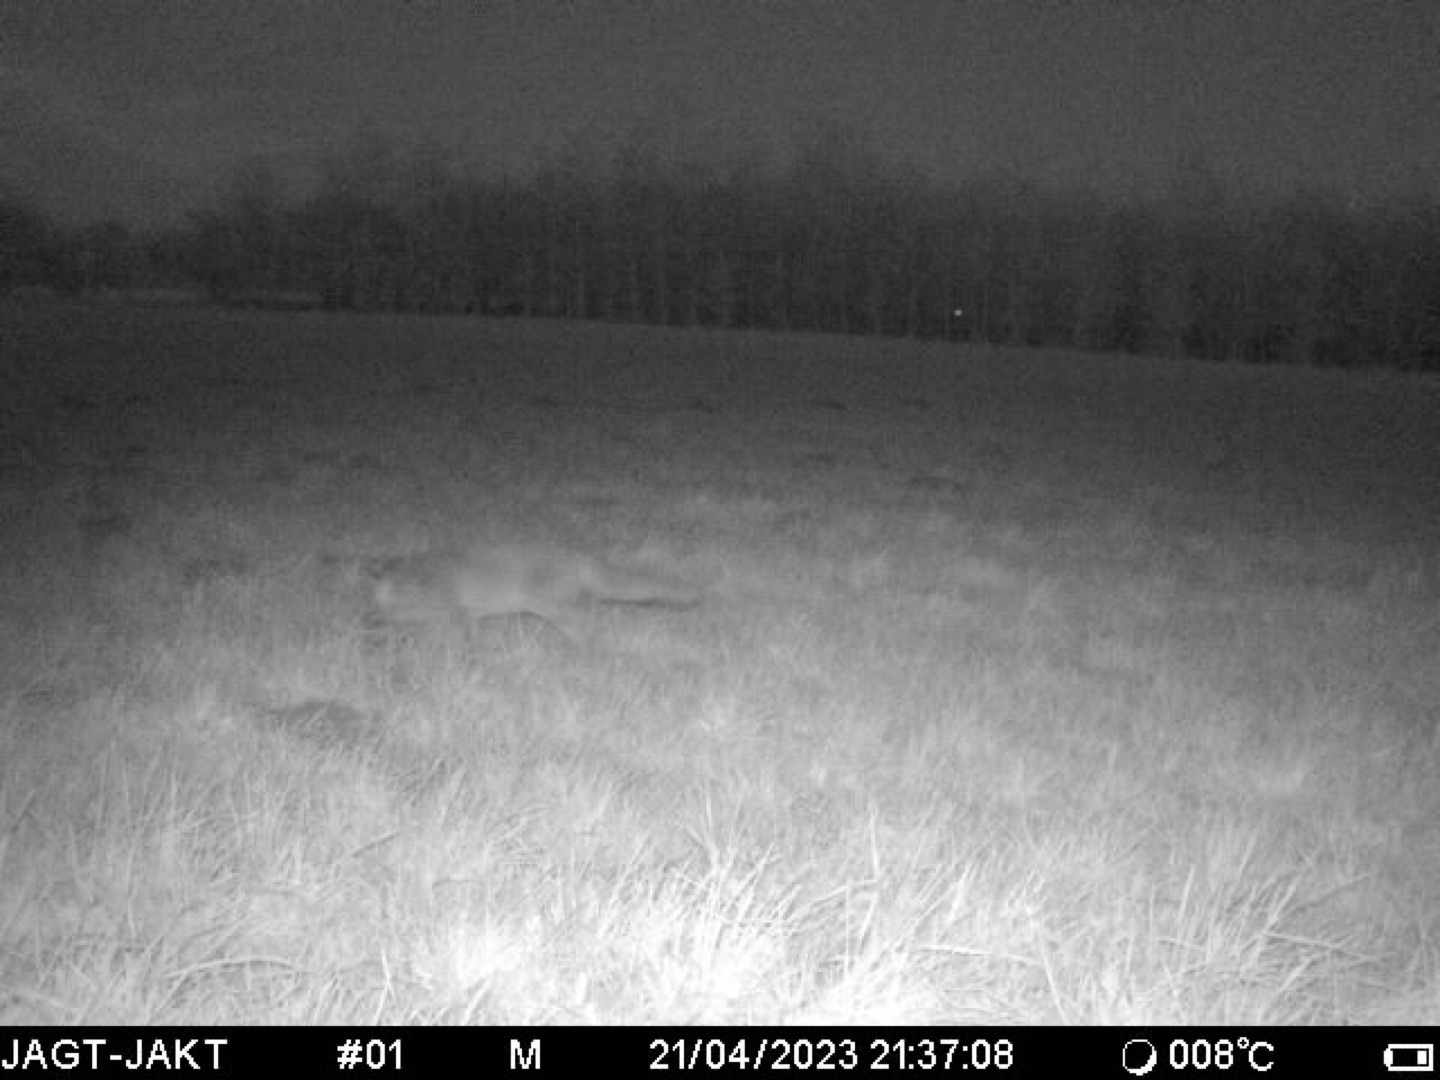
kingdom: Animalia
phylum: Chordata
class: Mammalia
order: Carnivora
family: Canidae
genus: Vulpes
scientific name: Vulpes vulpes
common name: Ræv
